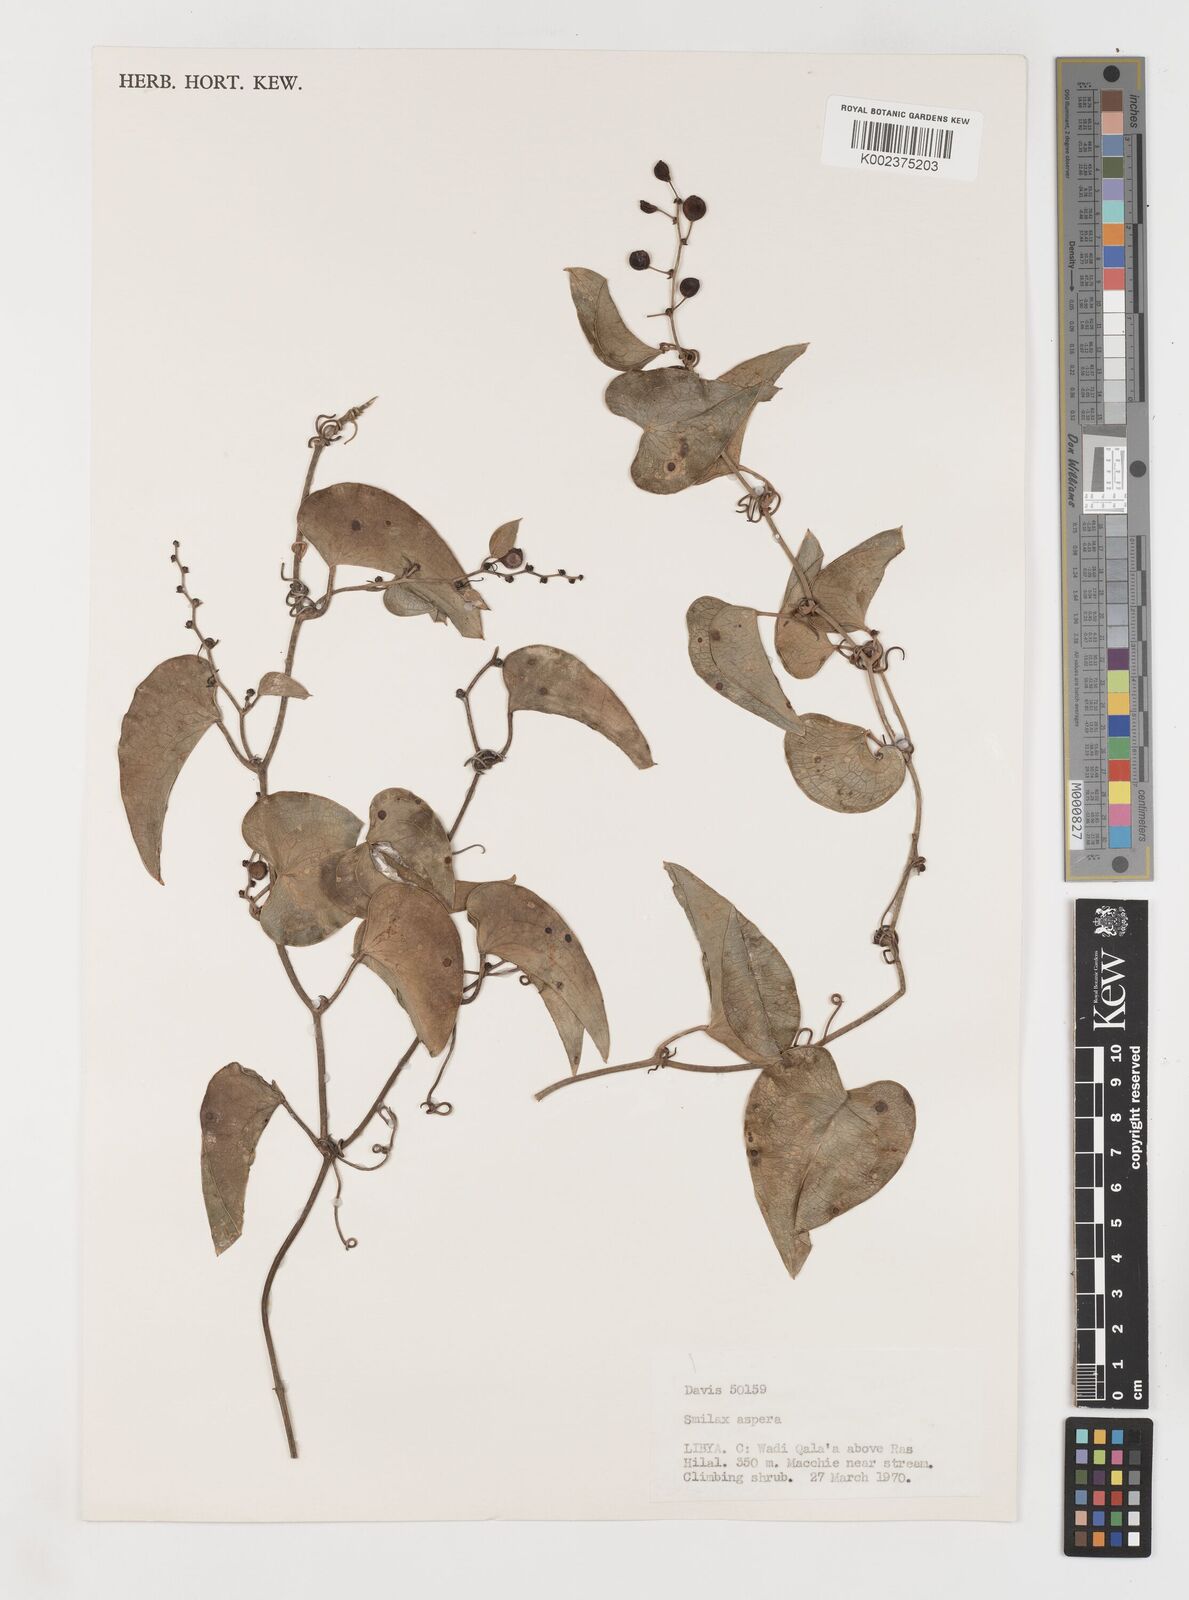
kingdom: Plantae
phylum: Tracheophyta
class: Liliopsida
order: Liliales
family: Smilacaceae
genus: Smilax
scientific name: Smilax aspera
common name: Common smilax
